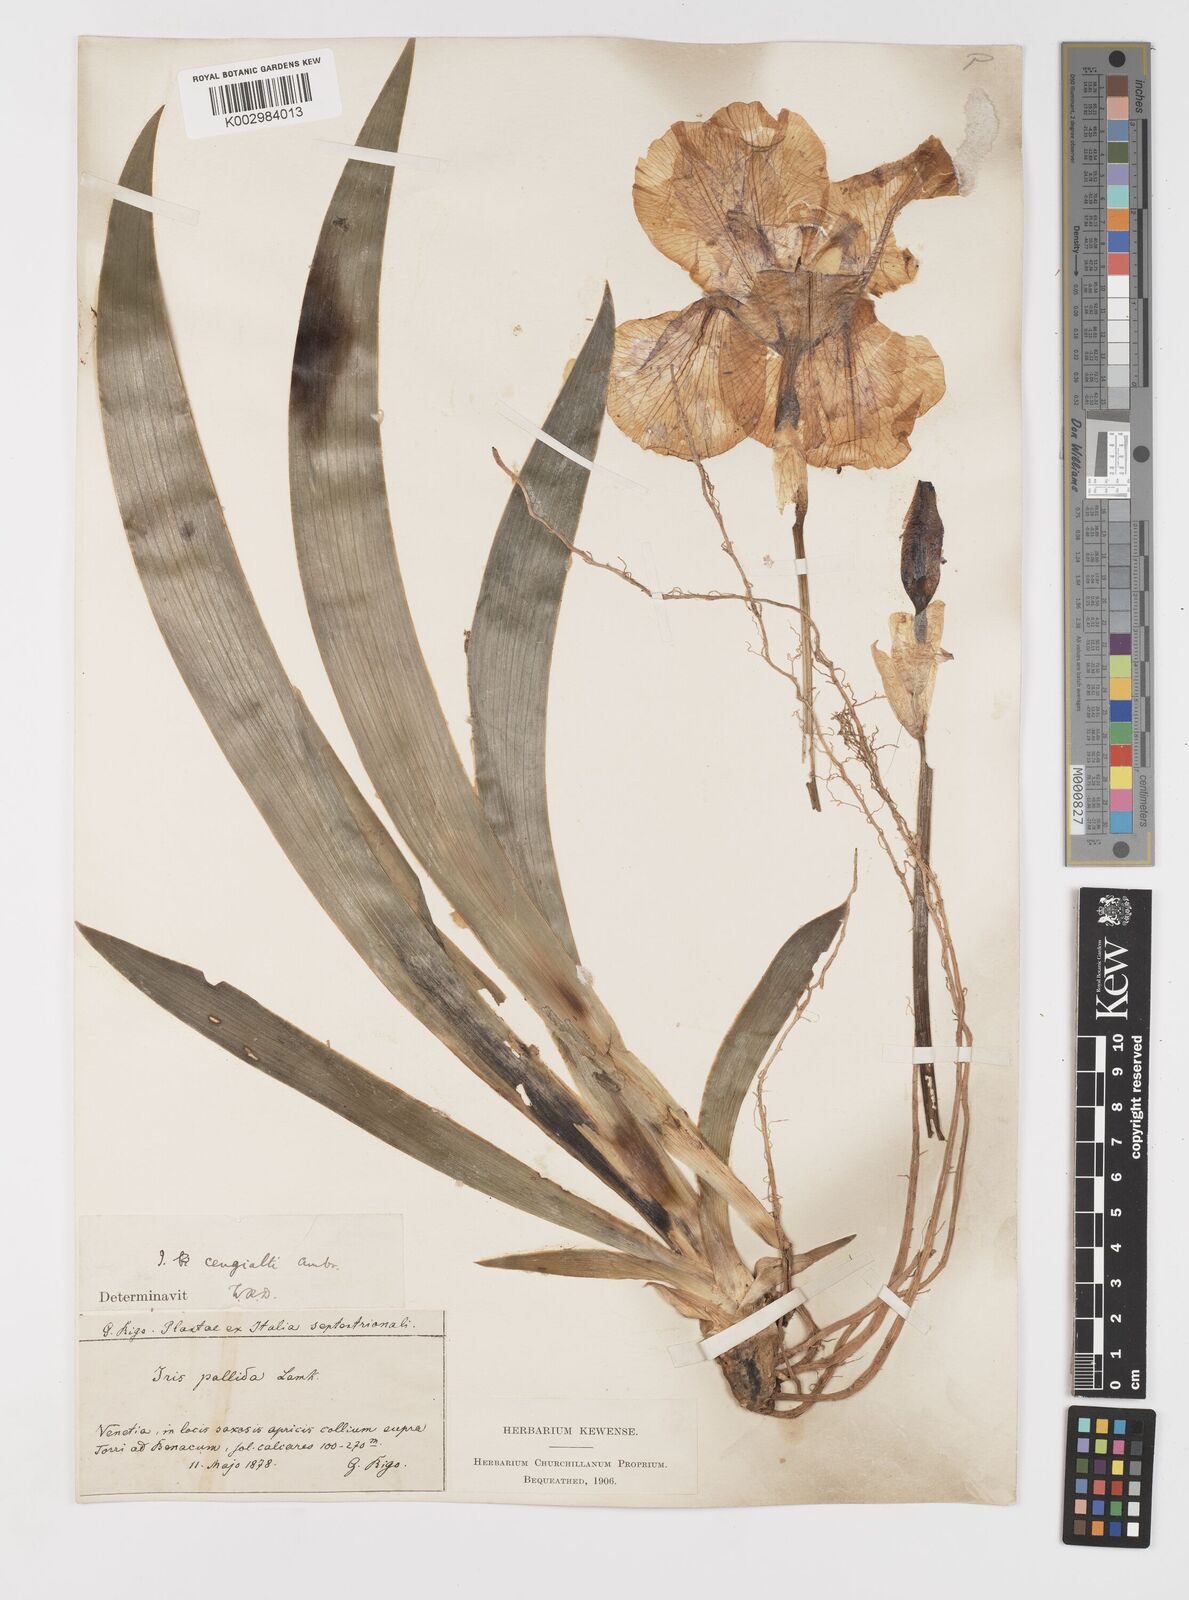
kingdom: Plantae
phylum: Tracheophyta
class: Liliopsida
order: Asparagales
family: Iridaceae
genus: Iris
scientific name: Iris pallida
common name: Sweet iris
